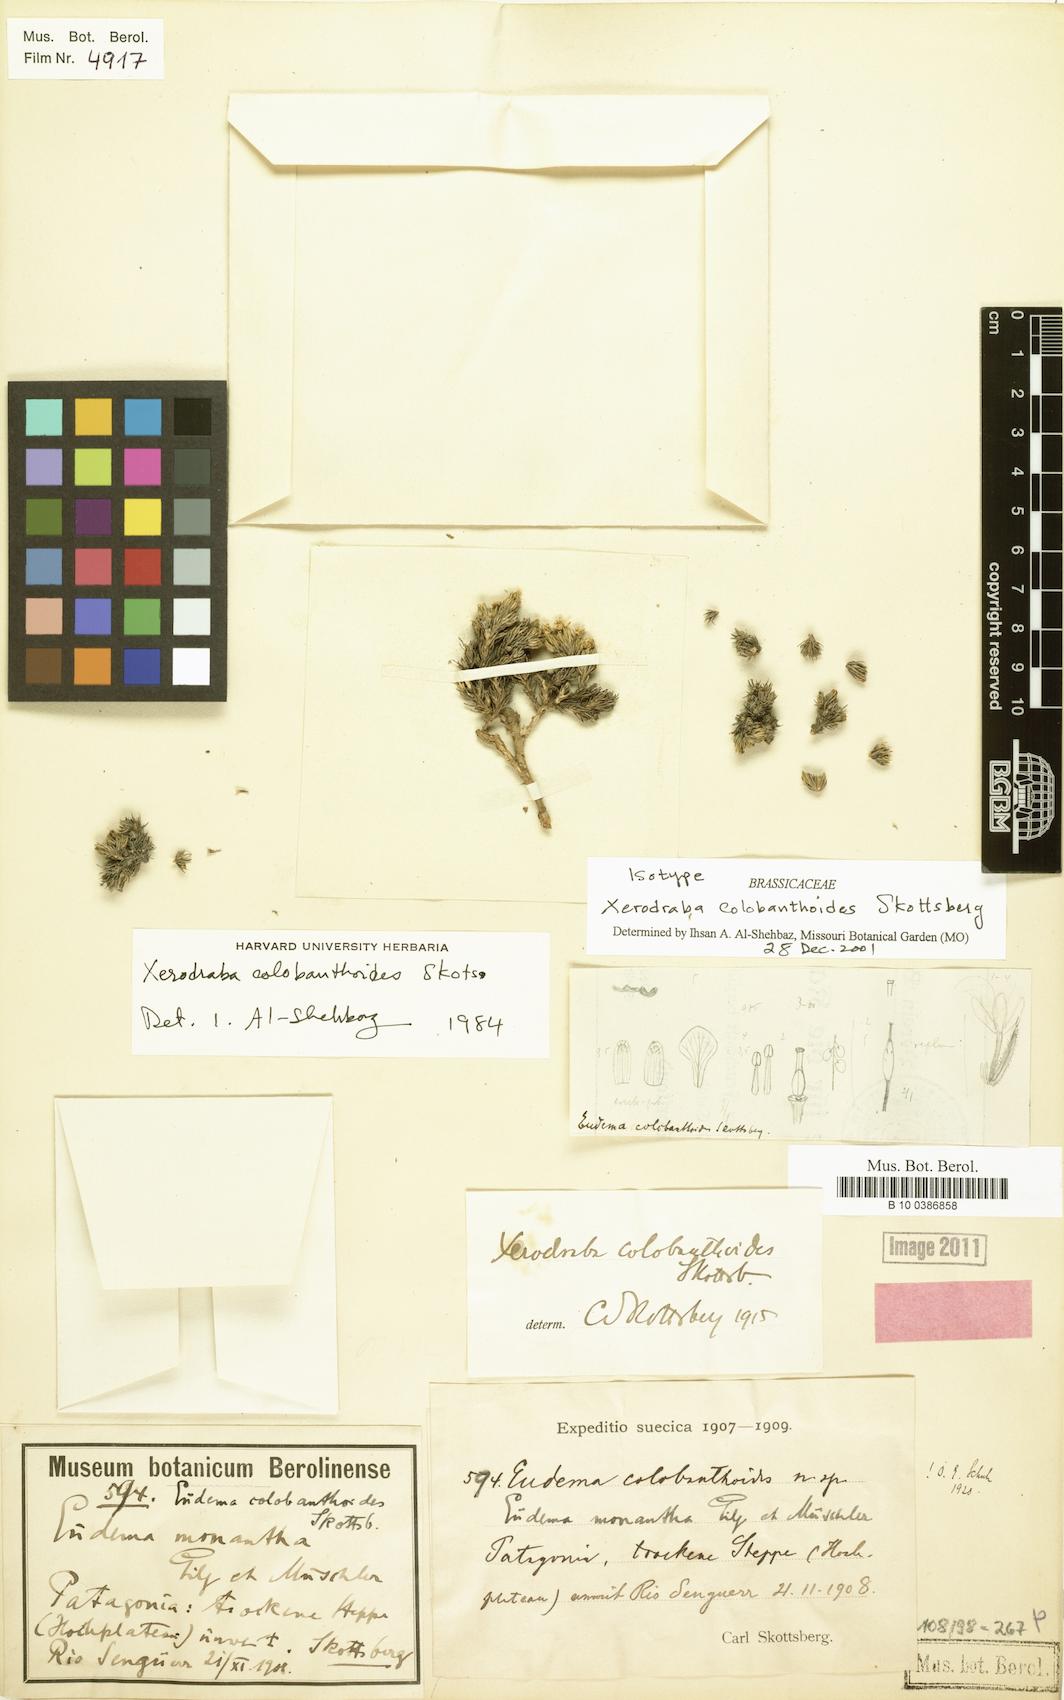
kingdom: Plantae
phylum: Tracheophyta
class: Magnoliopsida
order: Brassicales
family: Brassicaceae
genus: Xerodraba
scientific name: Xerodraba colobanthoides
